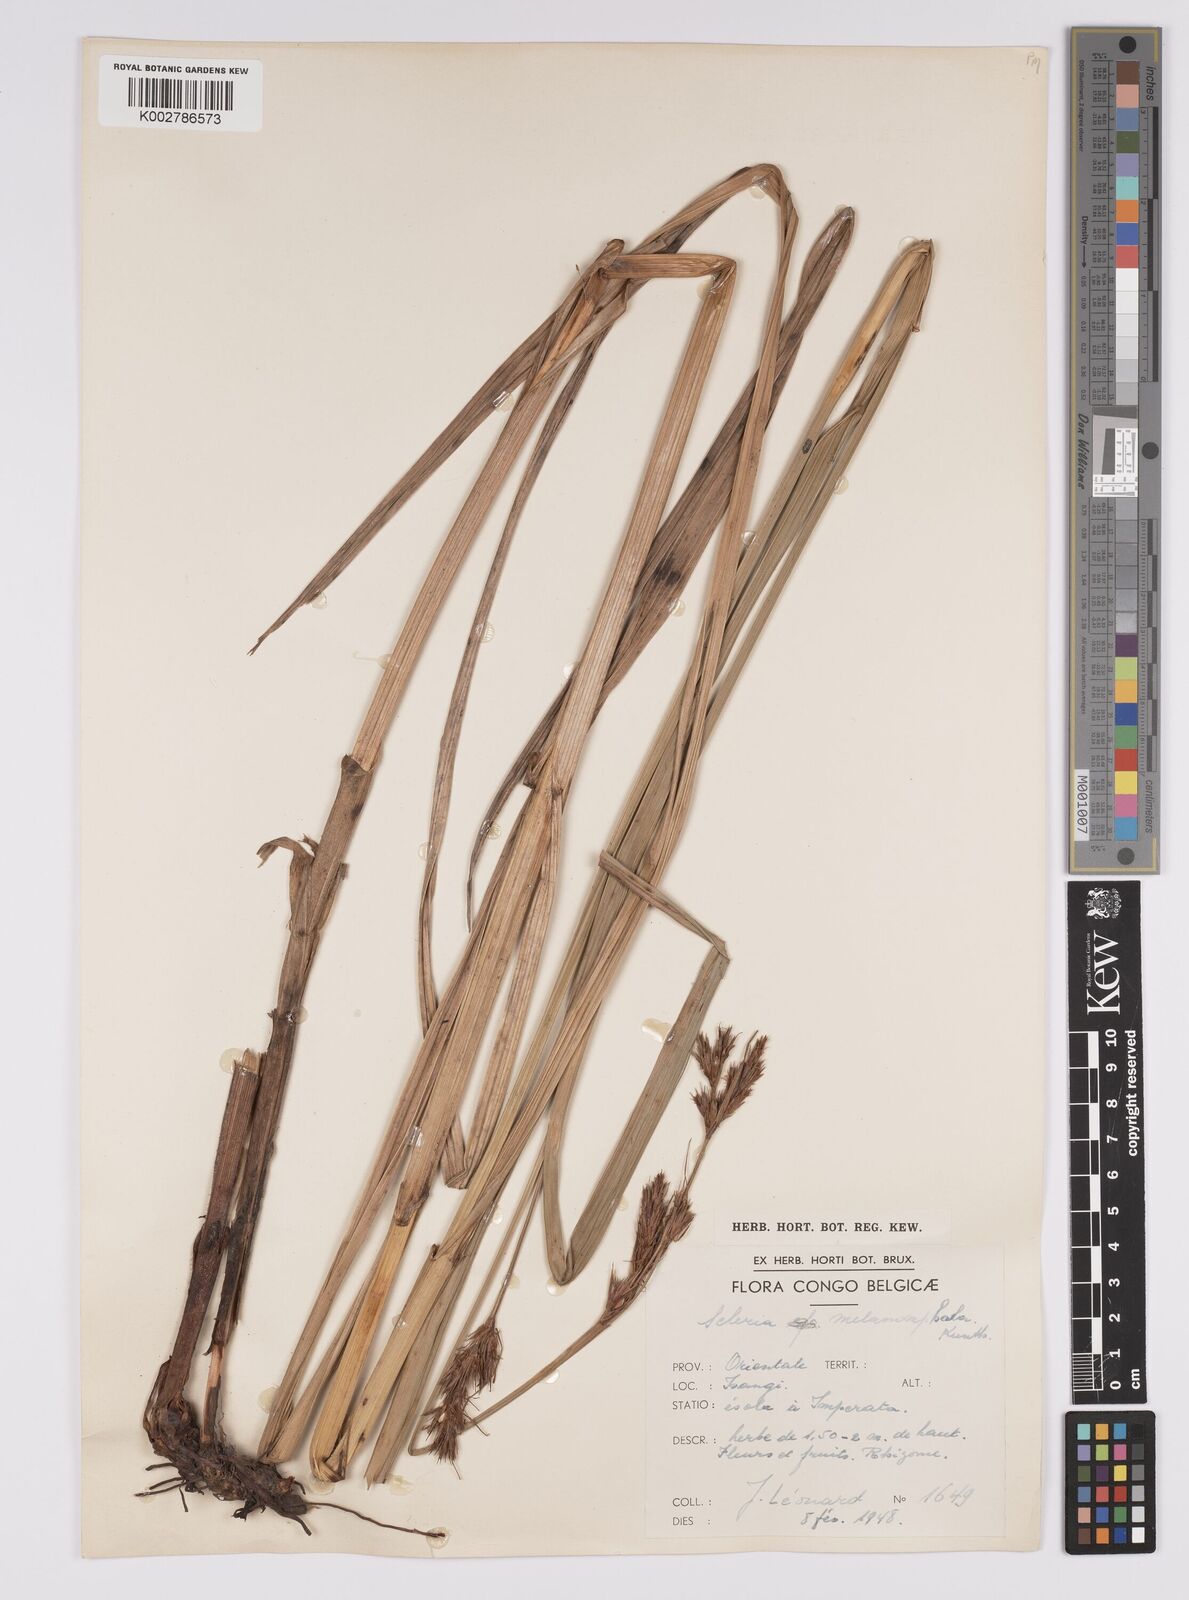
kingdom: Plantae
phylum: Tracheophyta
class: Liliopsida
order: Poales
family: Cyperaceae
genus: Scleria
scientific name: Scleria melanomphala
